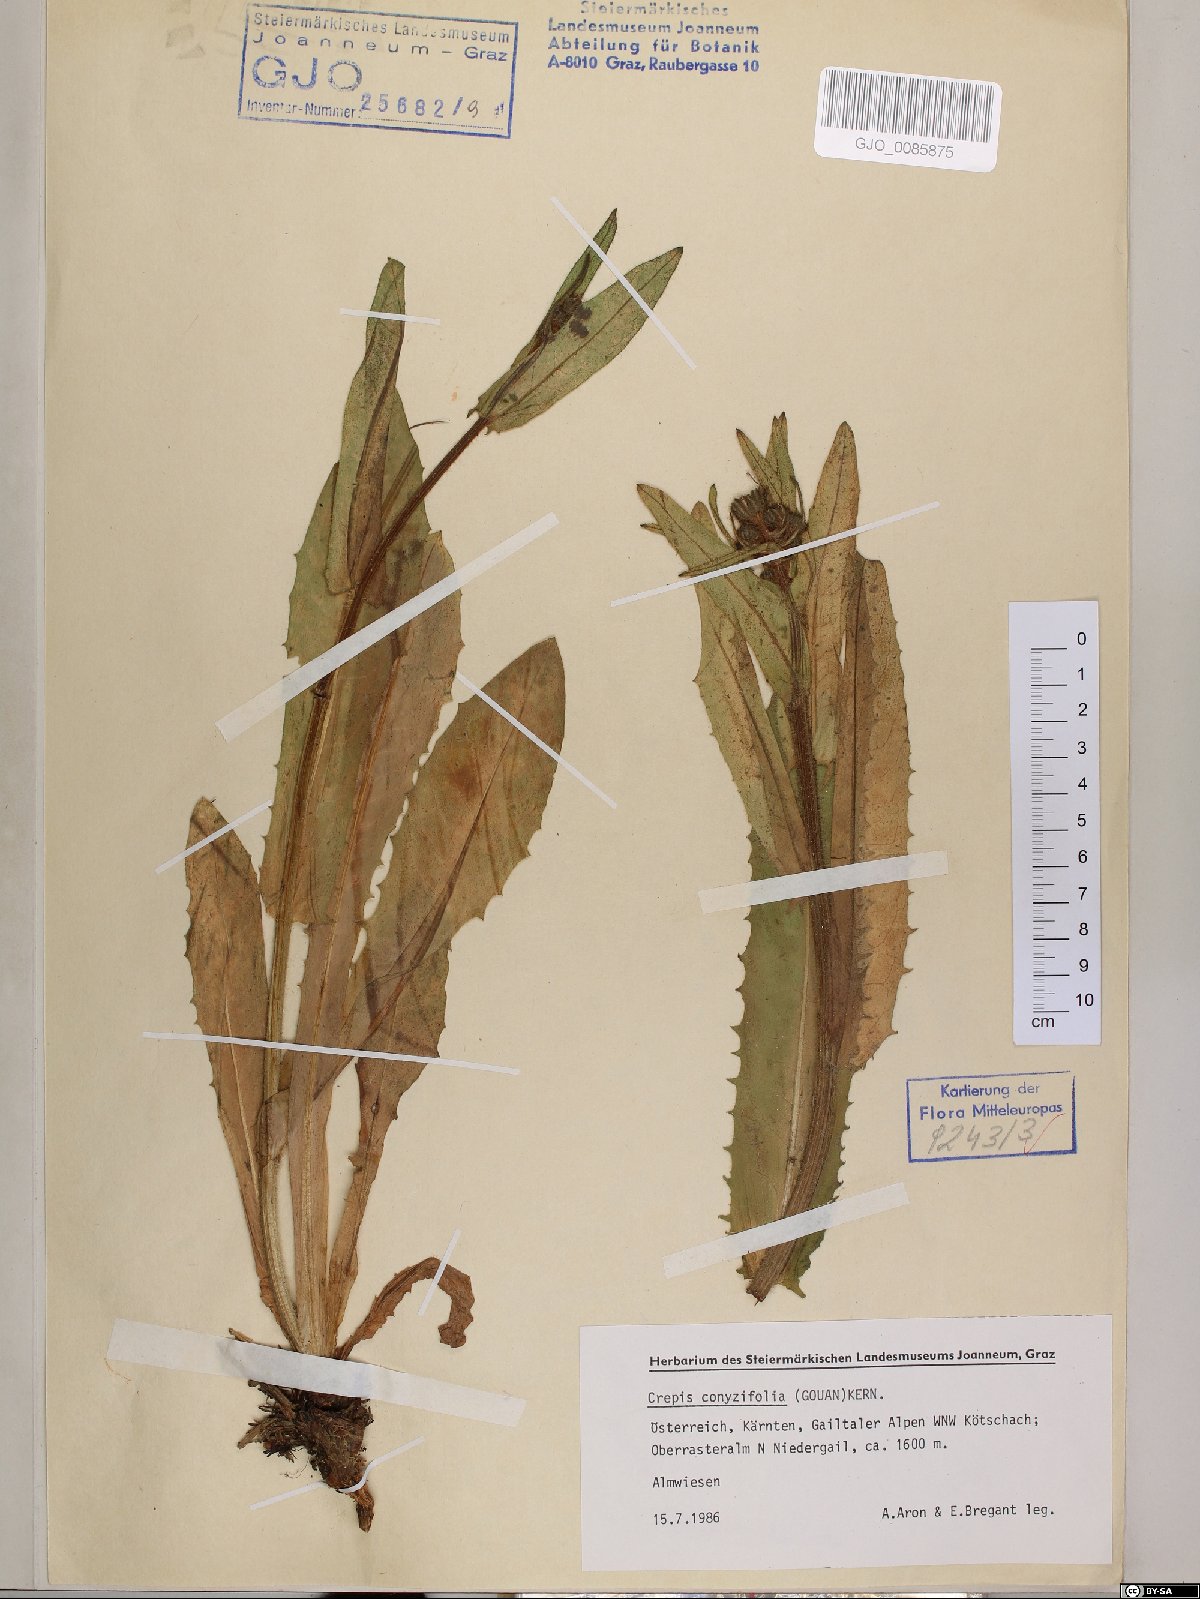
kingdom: Plantae
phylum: Tracheophyta
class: Magnoliopsida
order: Asterales
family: Asteraceae
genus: Crepis
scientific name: Crepis blattarioides
